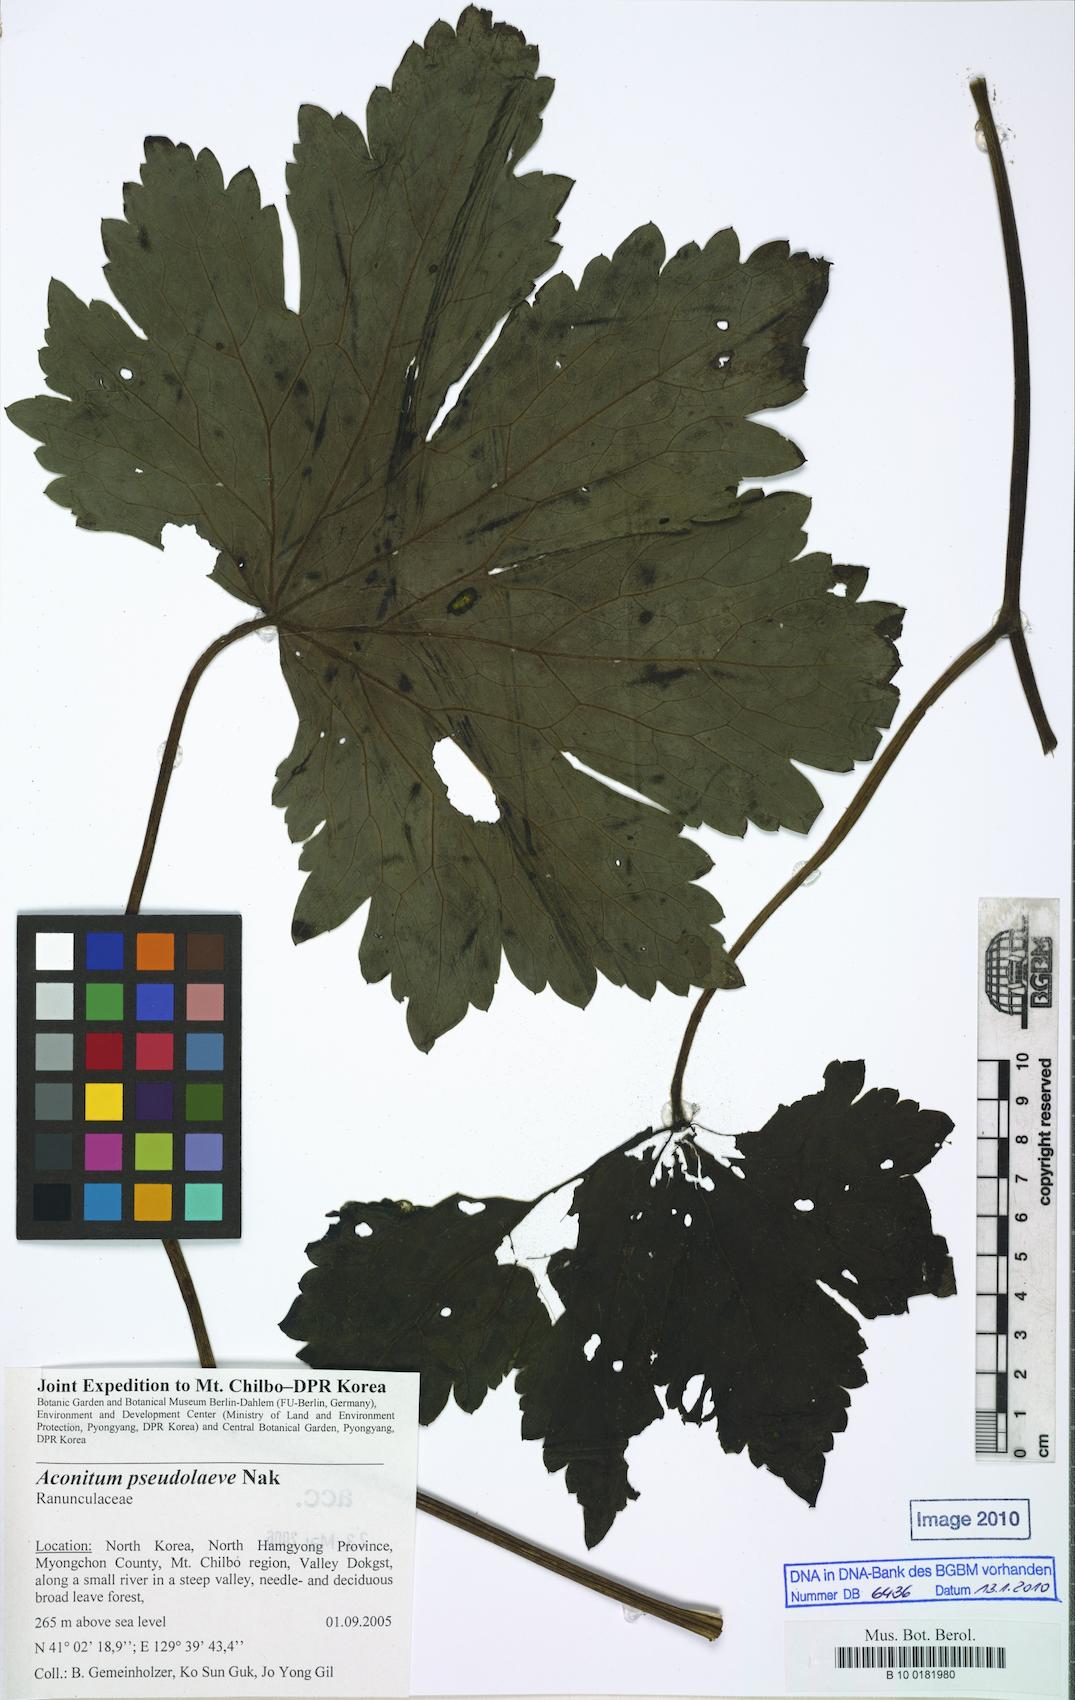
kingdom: Plantae
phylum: Tracheophyta
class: Magnoliopsida
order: Ranunculales
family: Ranunculaceae
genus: Aconitum
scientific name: Aconitum pseudolaeve
